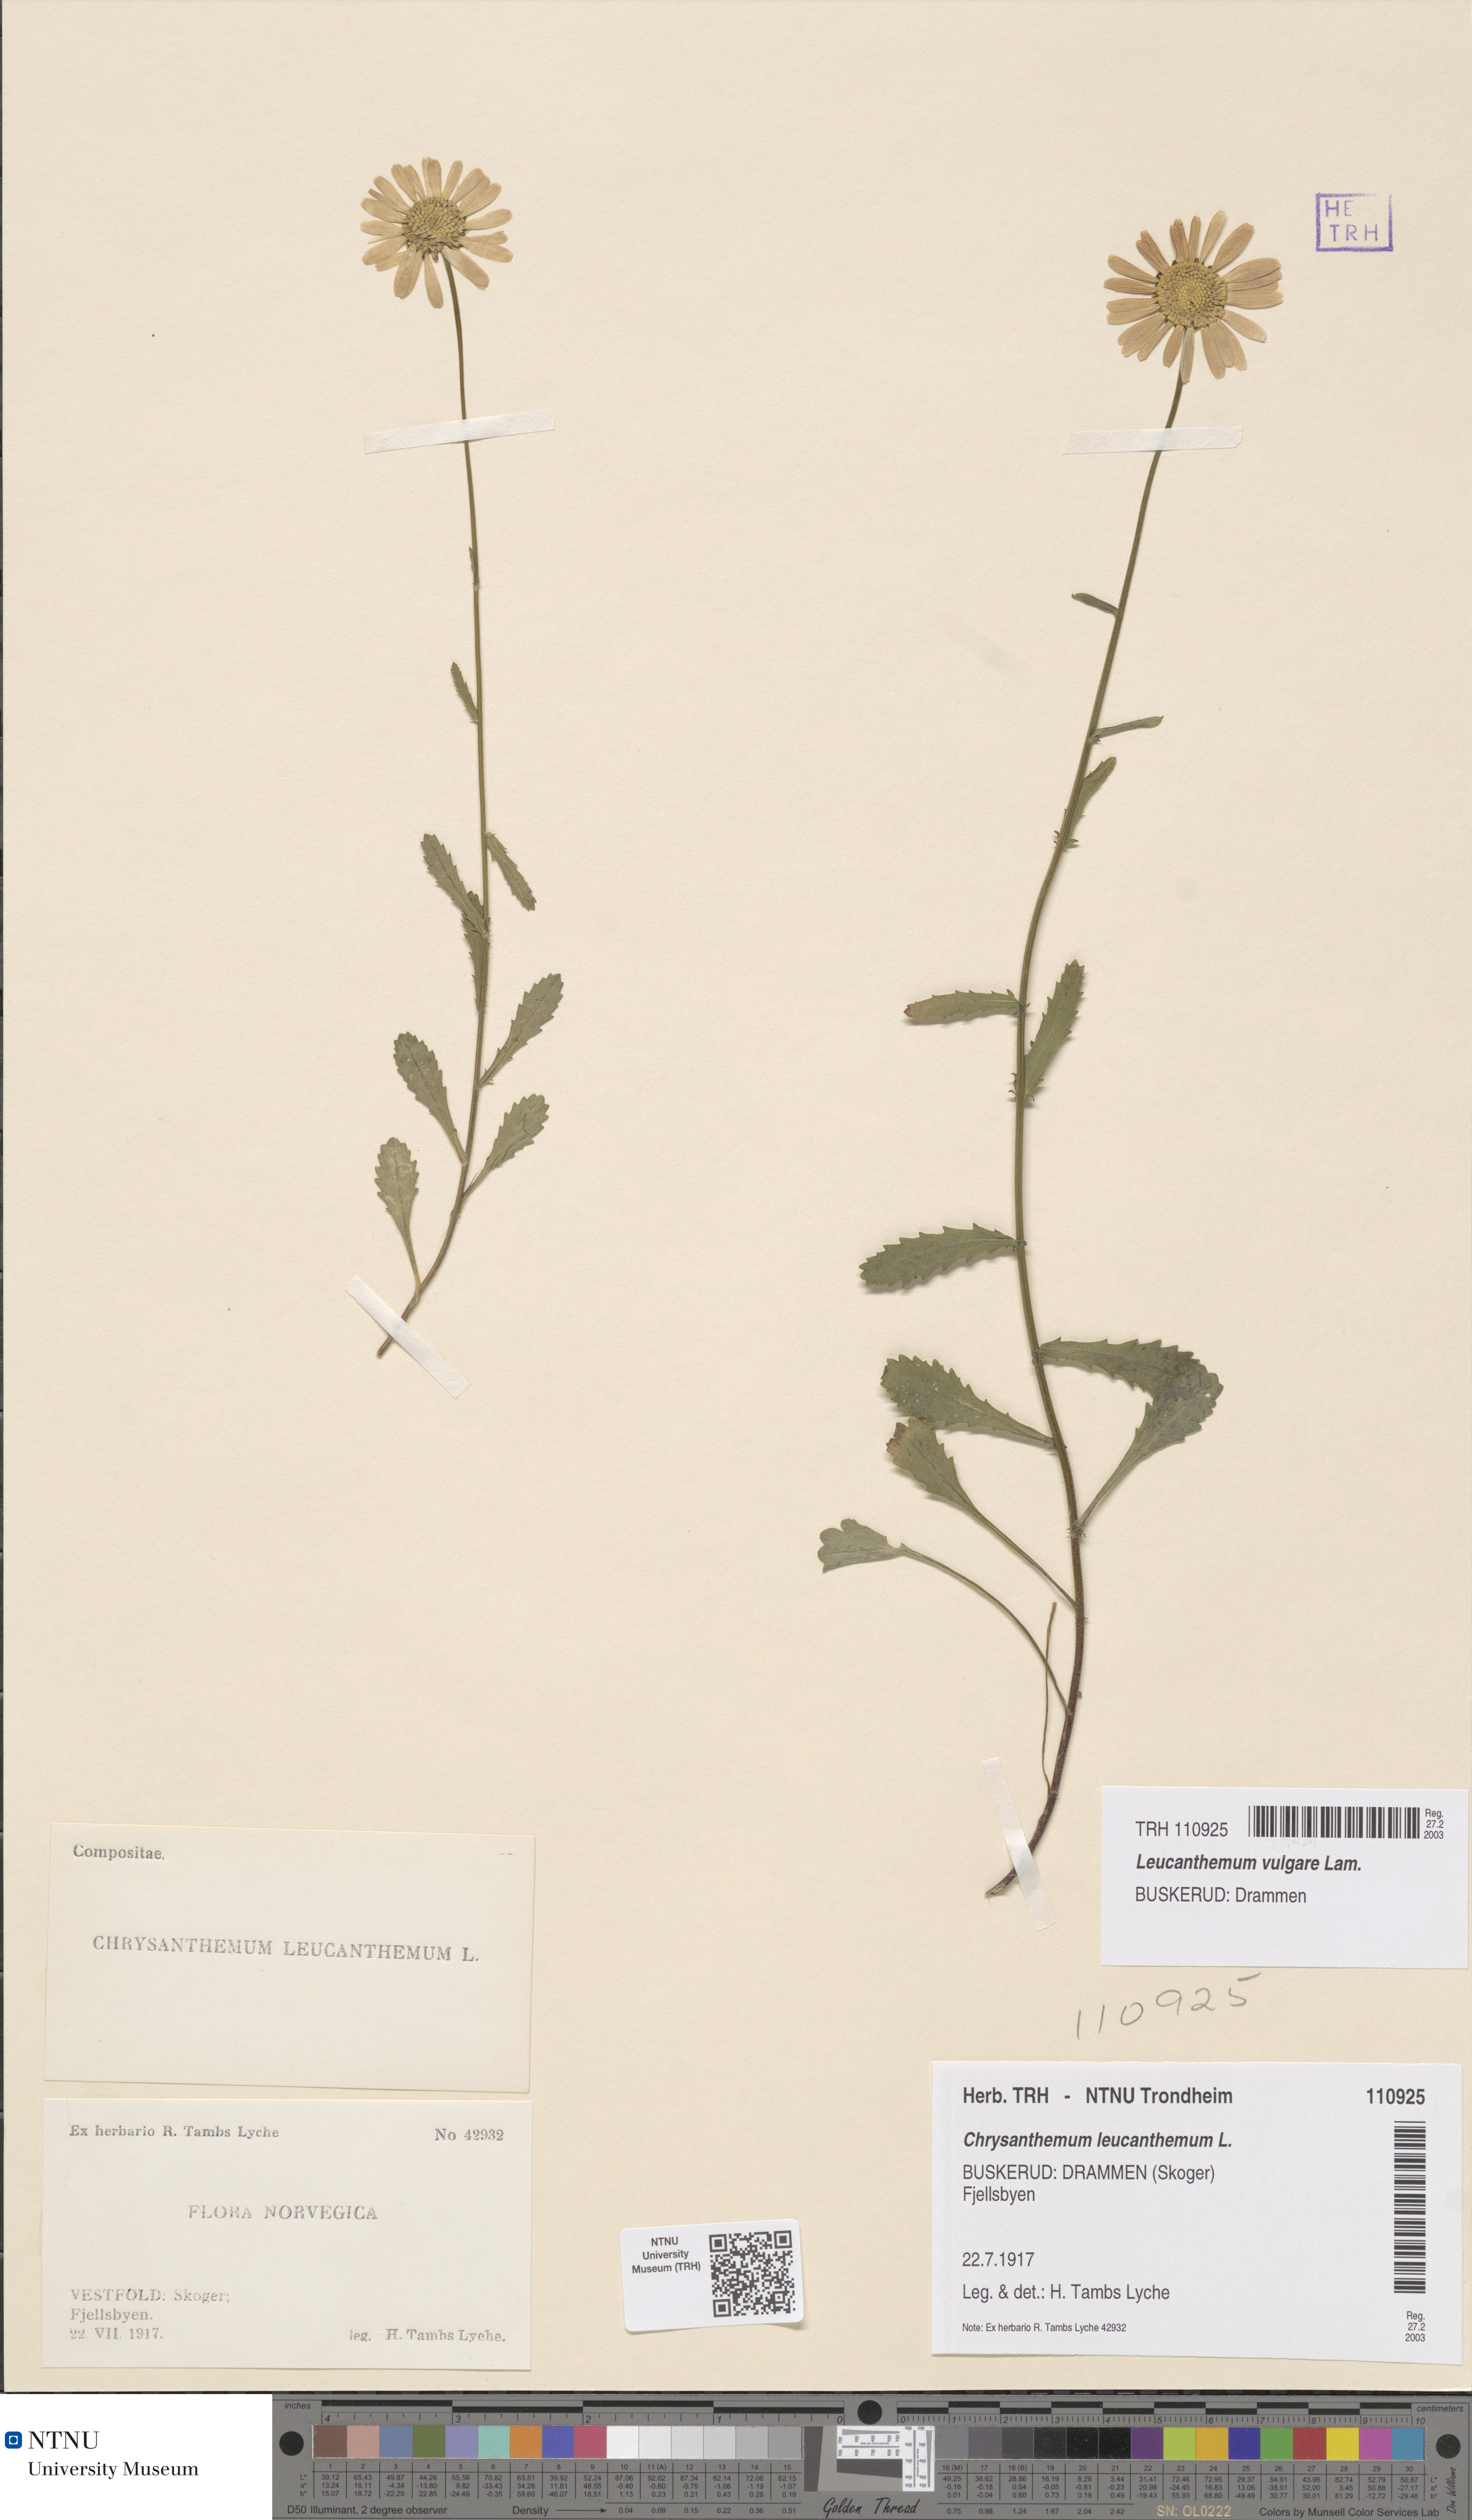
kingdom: Plantae
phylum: Tracheophyta
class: Magnoliopsida
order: Asterales
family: Asteraceae
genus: Leucanthemum
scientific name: Leucanthemum vulgare
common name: Oxeye daisy
